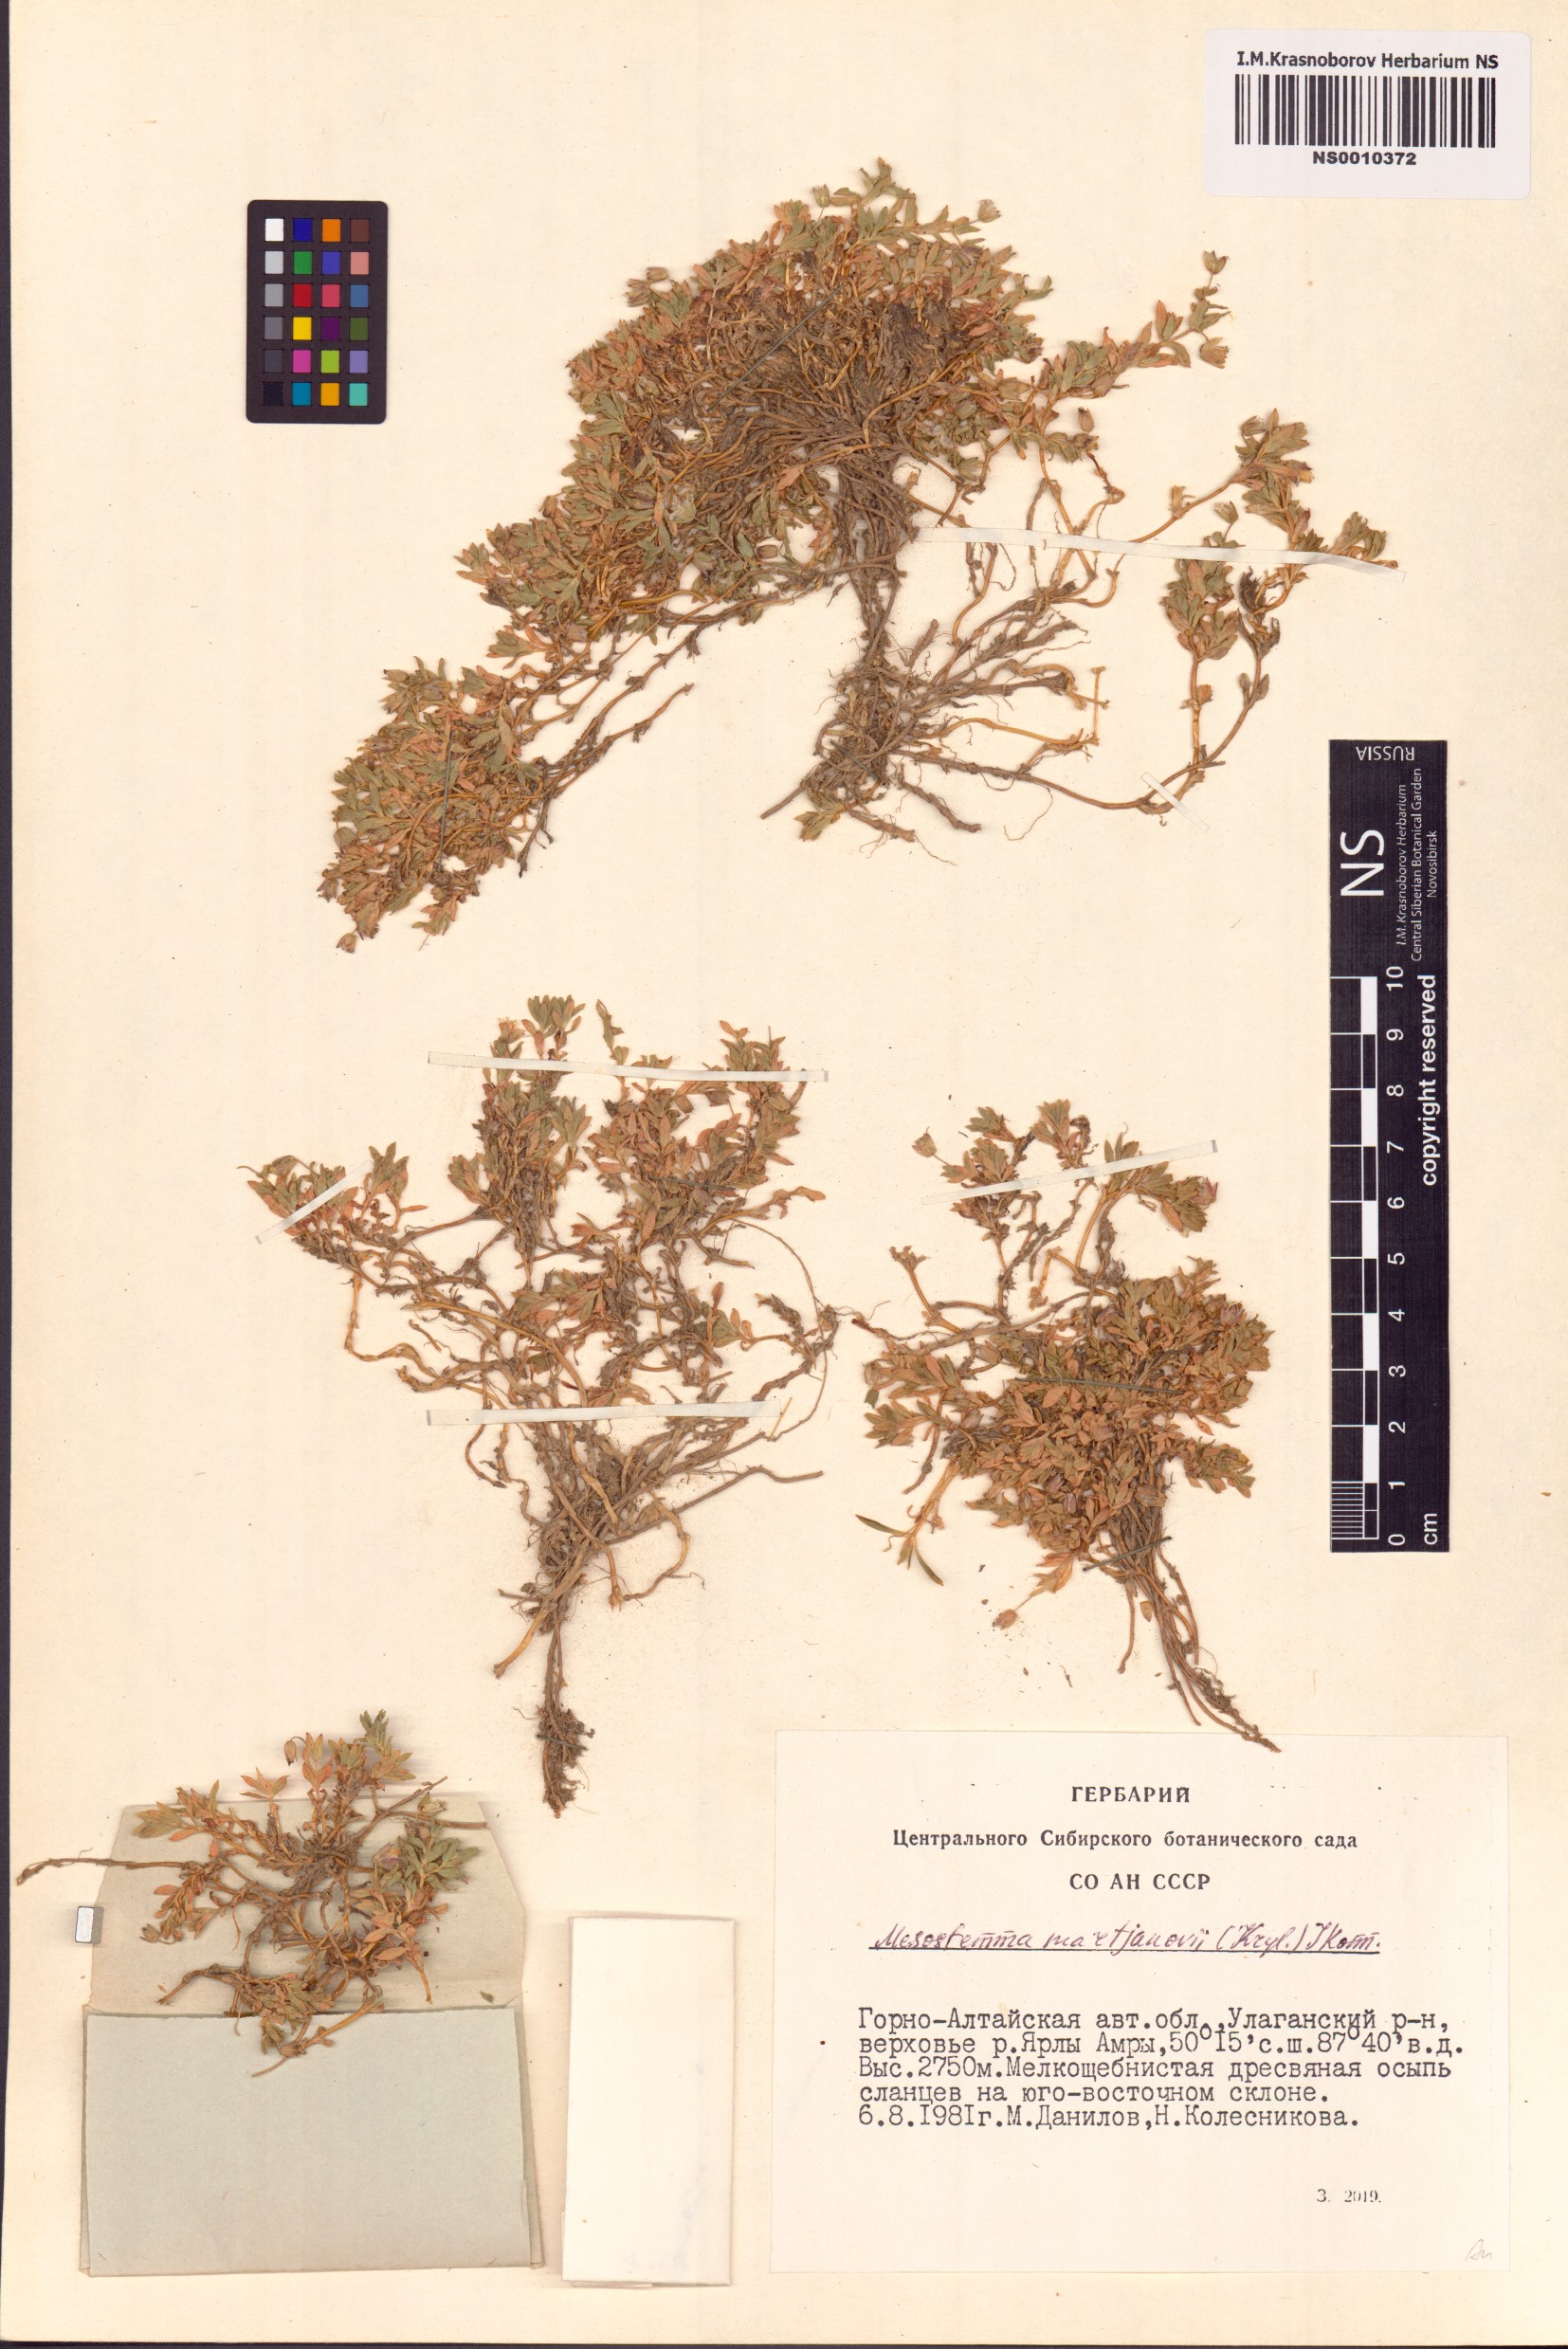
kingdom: Plantae
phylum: Tracheophyta
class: Magnoliopsida
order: Caryophyllales
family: Caryophyllaceae
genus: Mesostemma
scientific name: Mesostemma martjanovii
